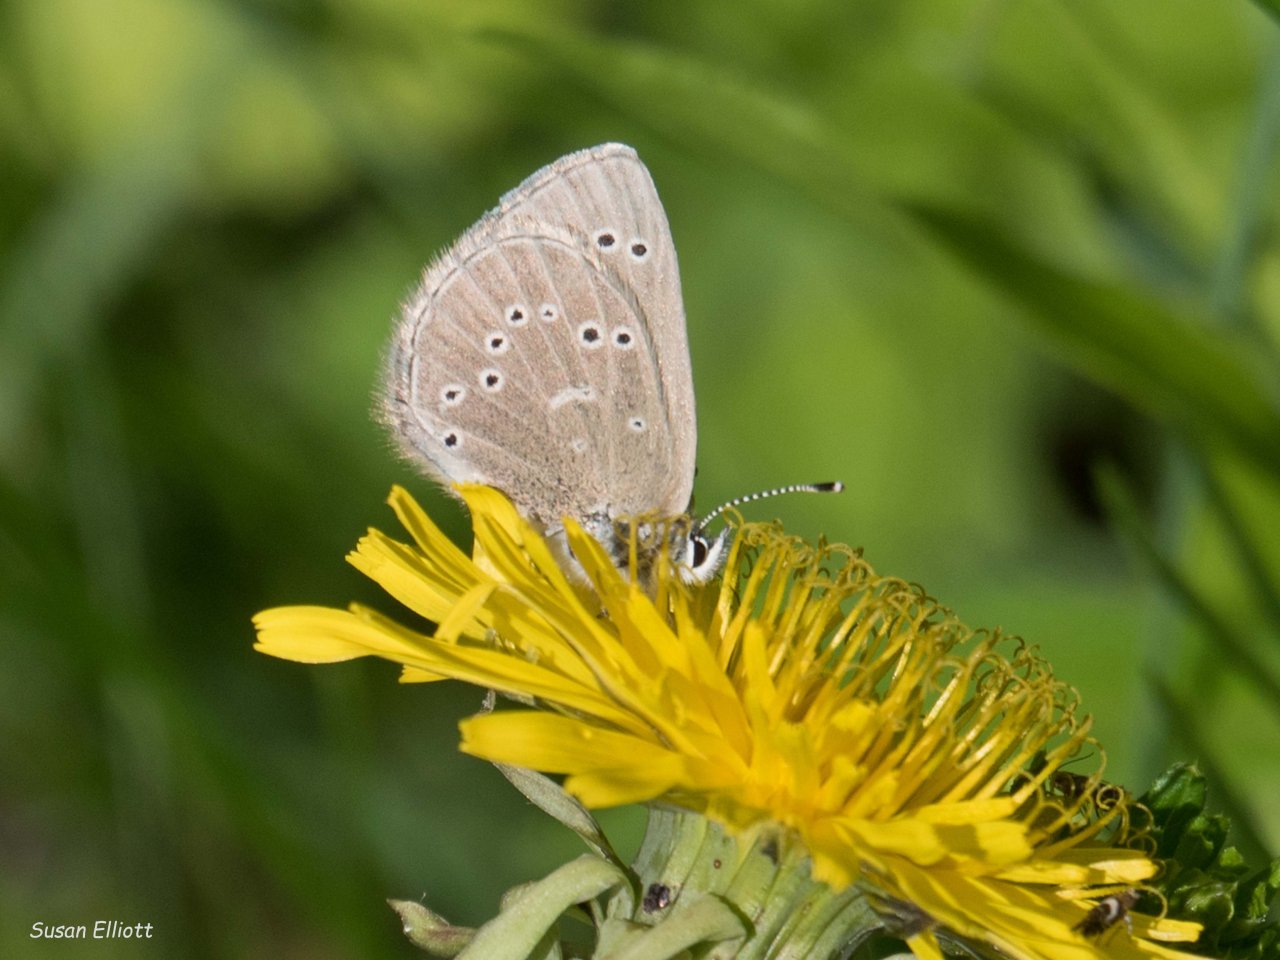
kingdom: Animalia
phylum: Arthropoda
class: Insecta
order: Lepidoptera
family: Lycaenidae
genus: Glaucopsyche
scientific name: Glaucopsyche lygdamus
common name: Silvery Blue
